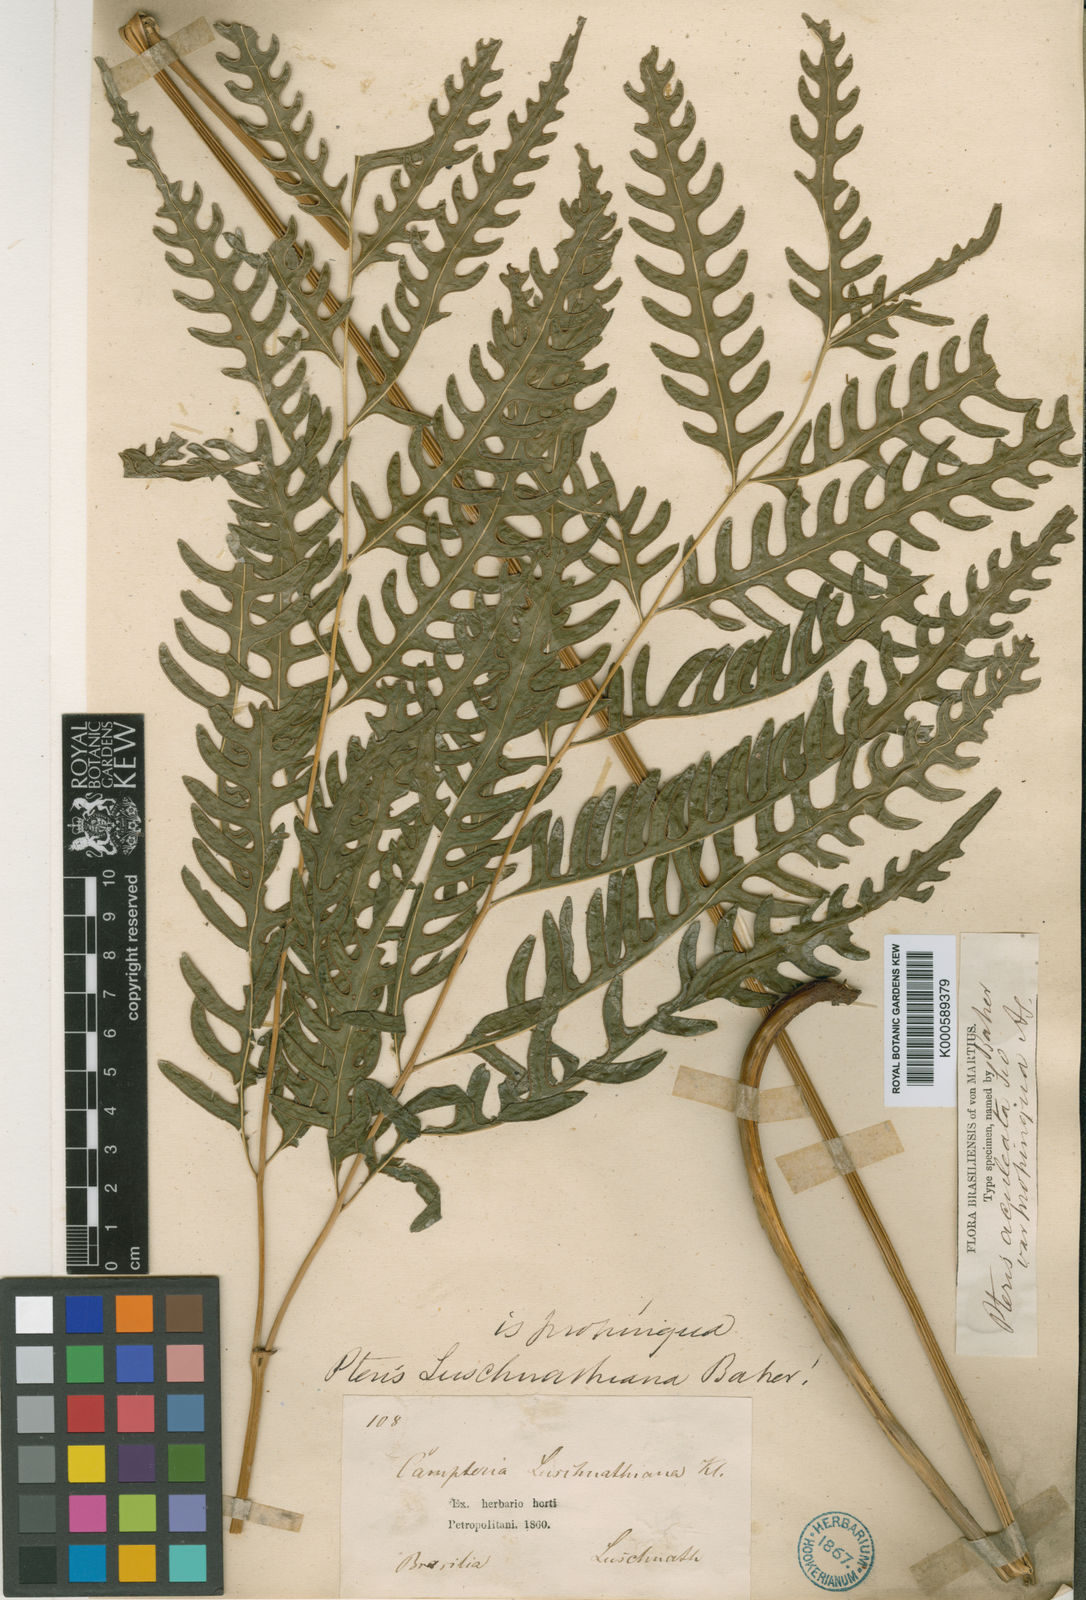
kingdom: Plantae
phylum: Tracheophyta
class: Polypodiopsida
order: Polypodiales
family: Pteridaceae
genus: Pteris
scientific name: Pteris propinqua
